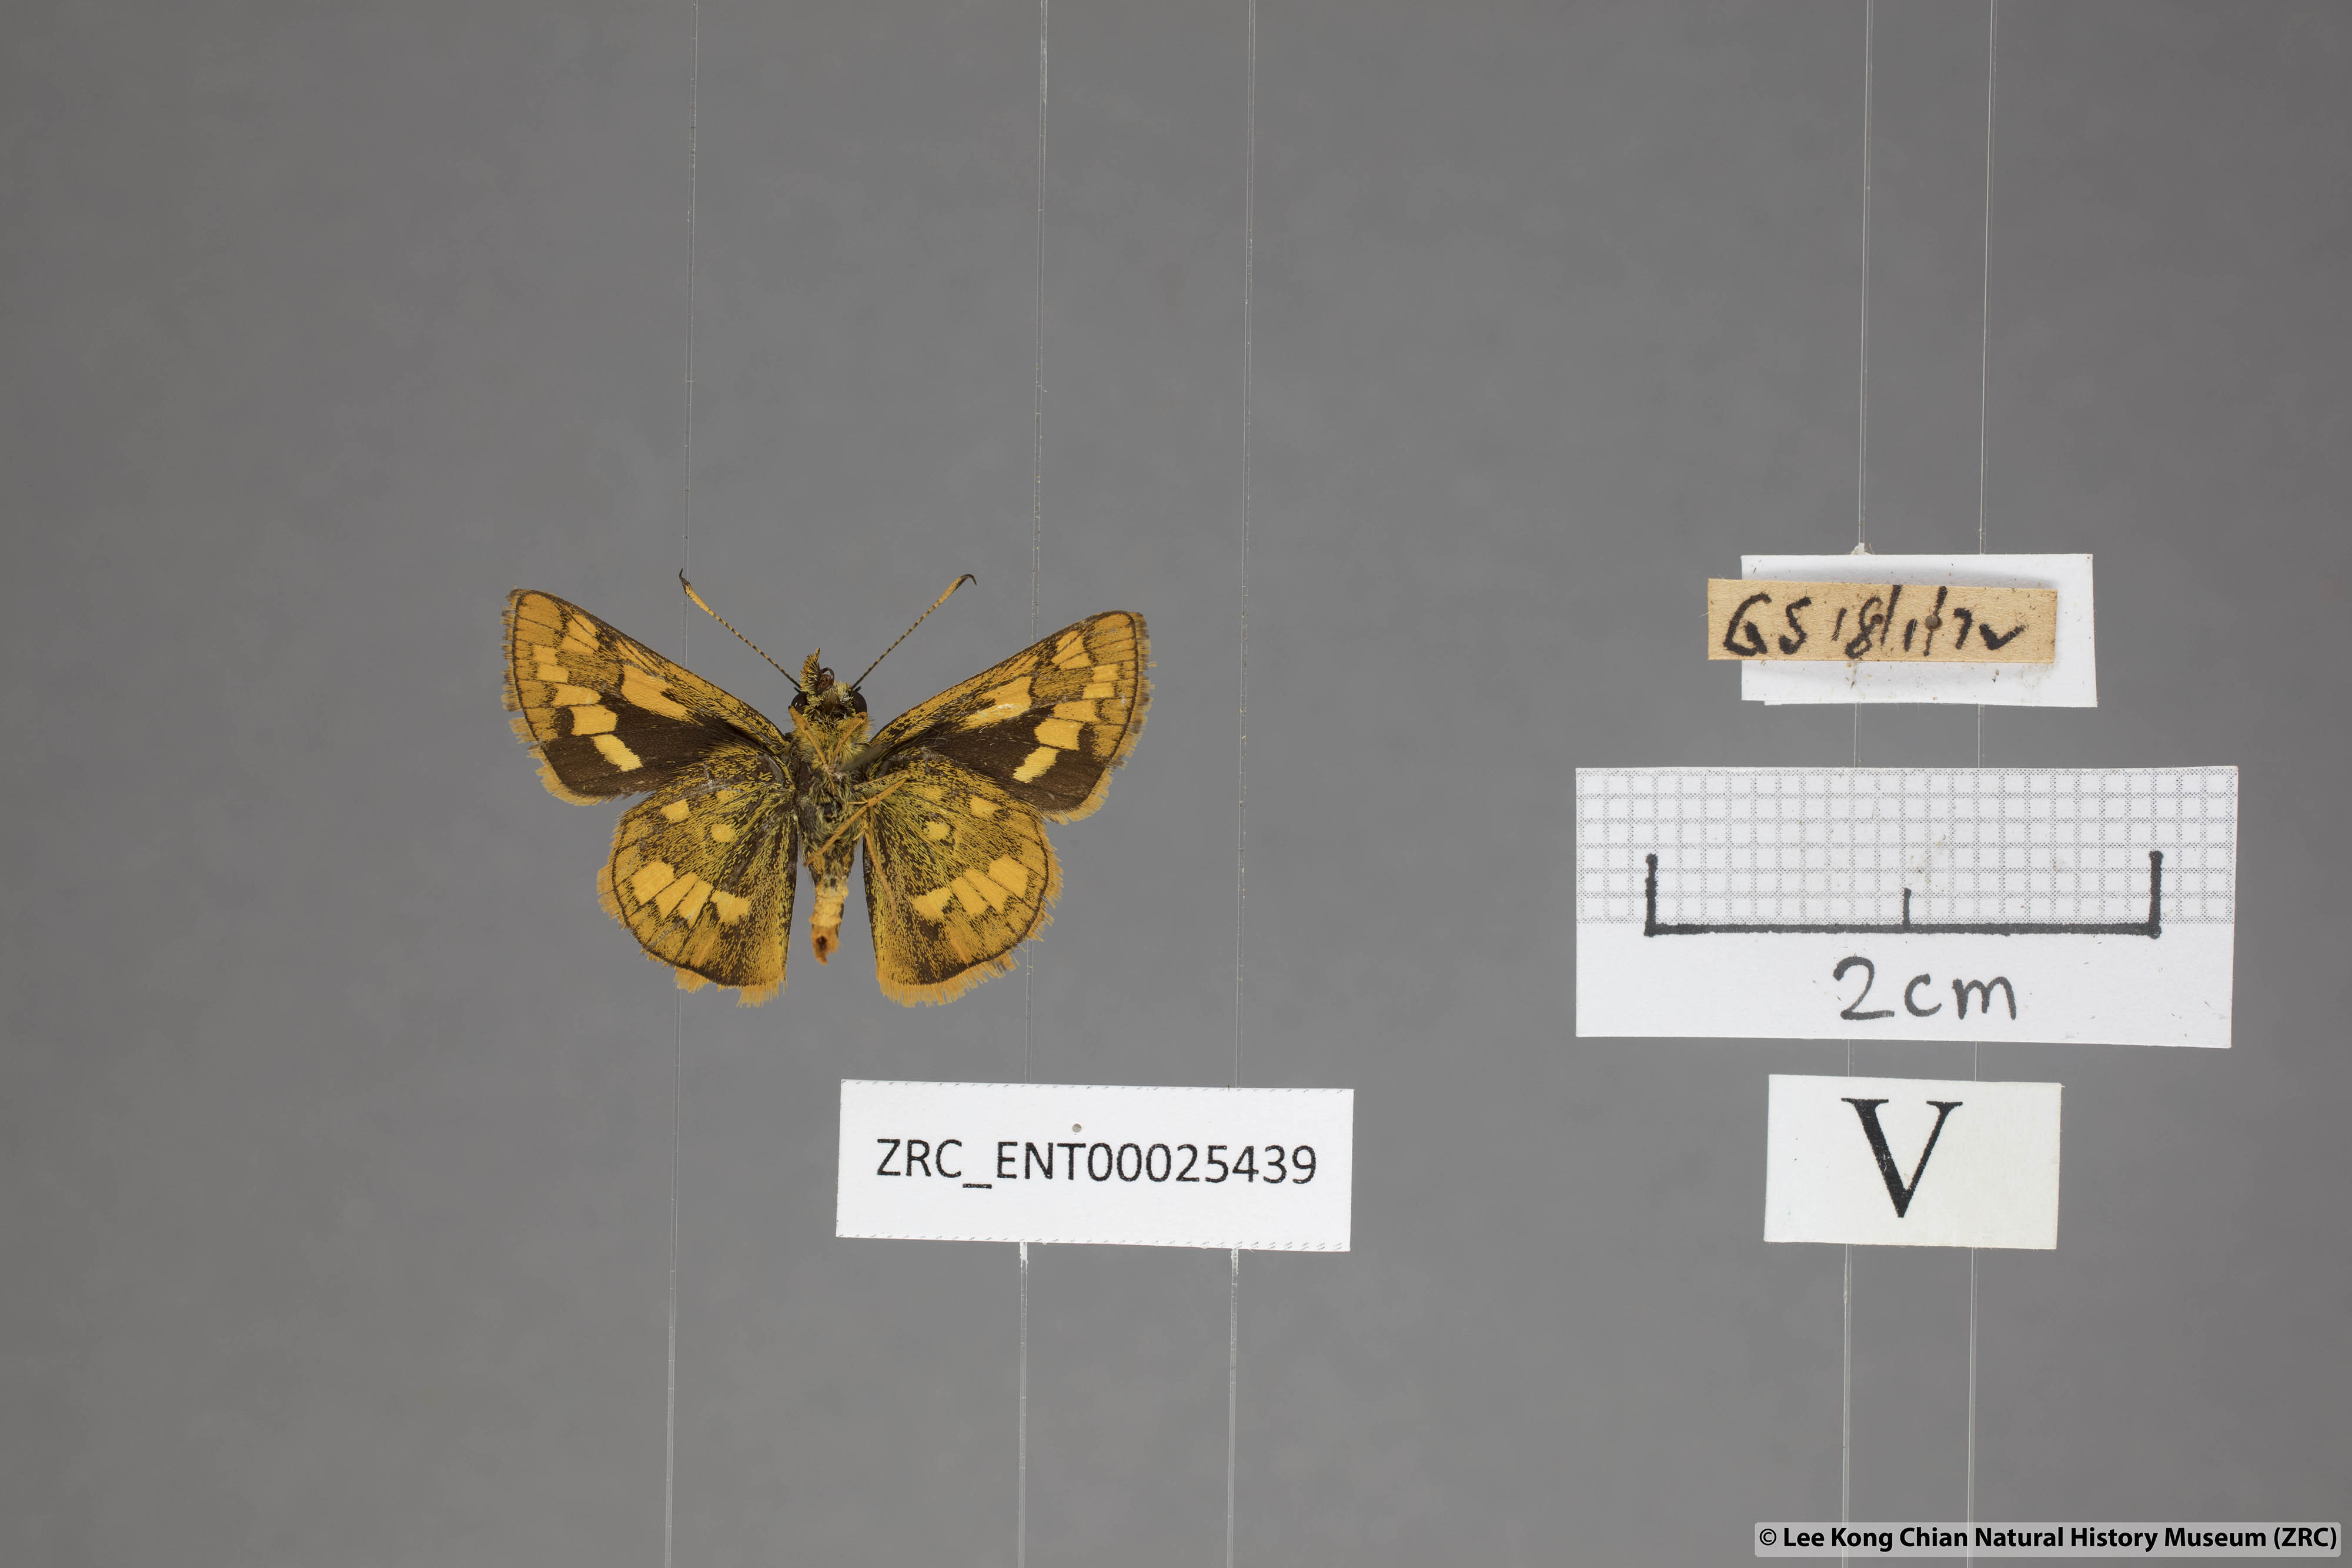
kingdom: Animalia
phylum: Arthropoda
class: Insecta
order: Lepidoptera
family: Hesperiidae
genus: Potanthus
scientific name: Potanthus omaha
